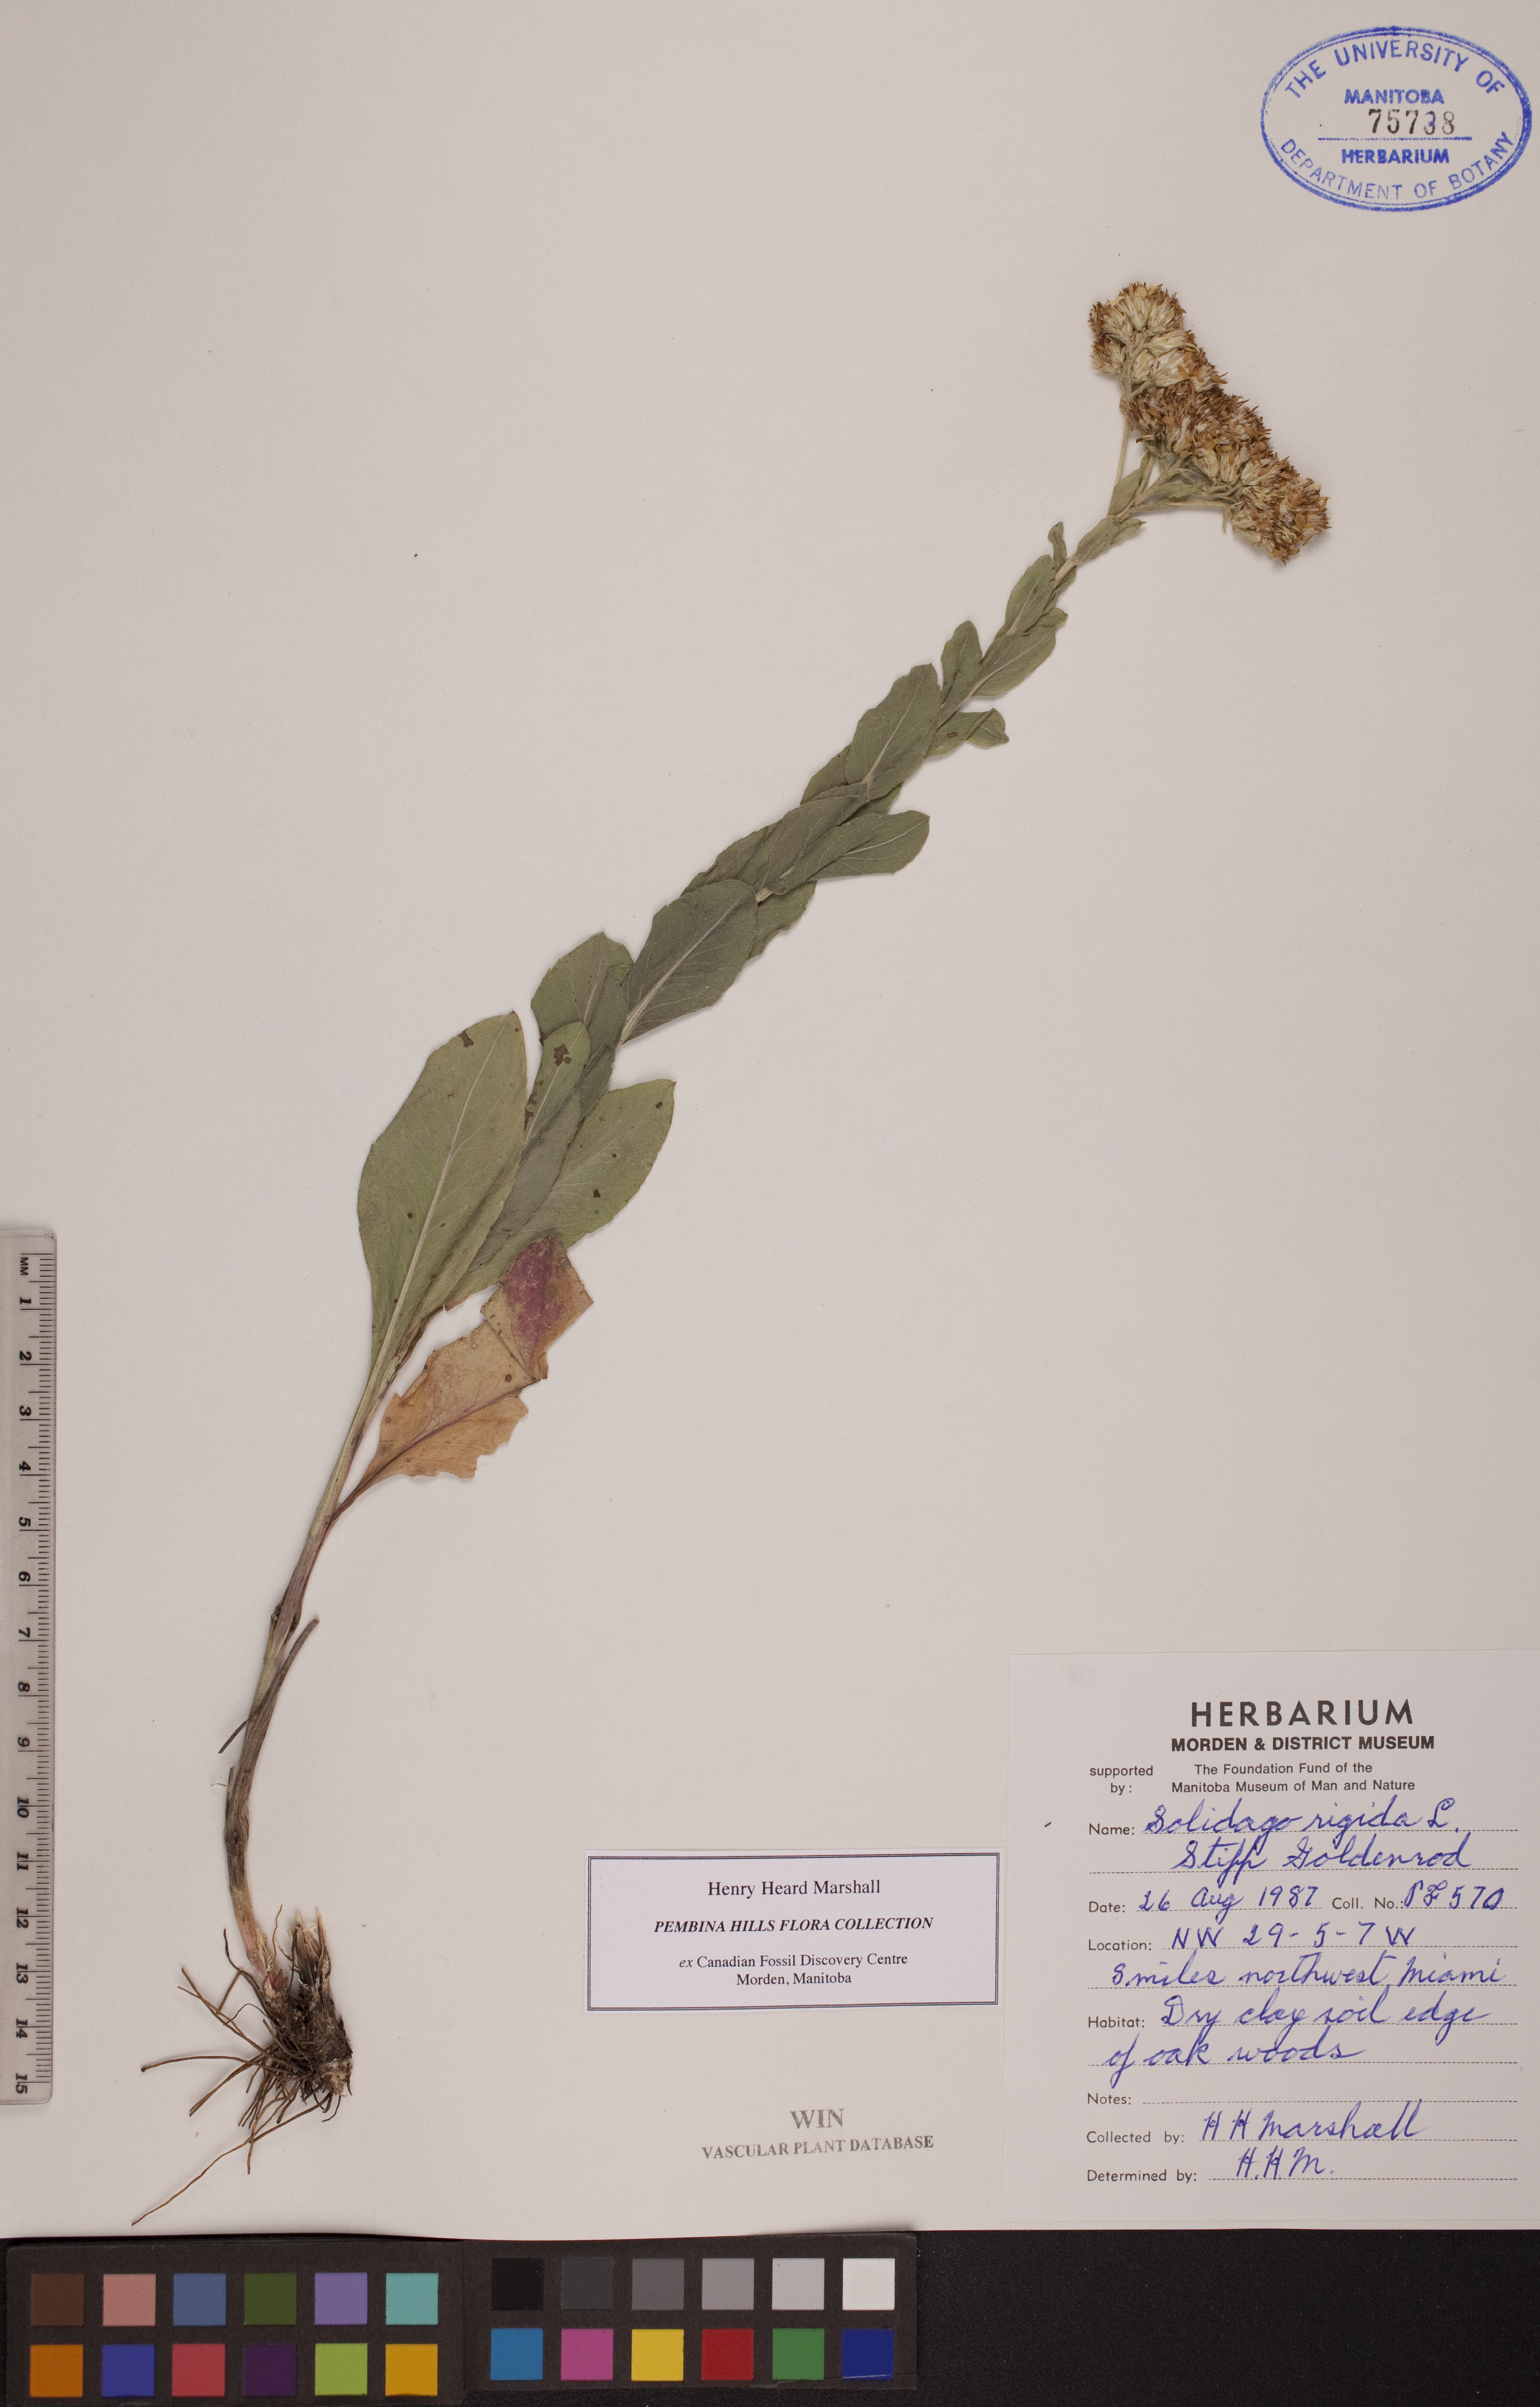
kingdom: Plantae
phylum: Tracheophyta
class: Magnoliopsida
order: Asterales
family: Asteraceae
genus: Solidago
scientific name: Solidago rigida
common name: Rigid goldenrod
